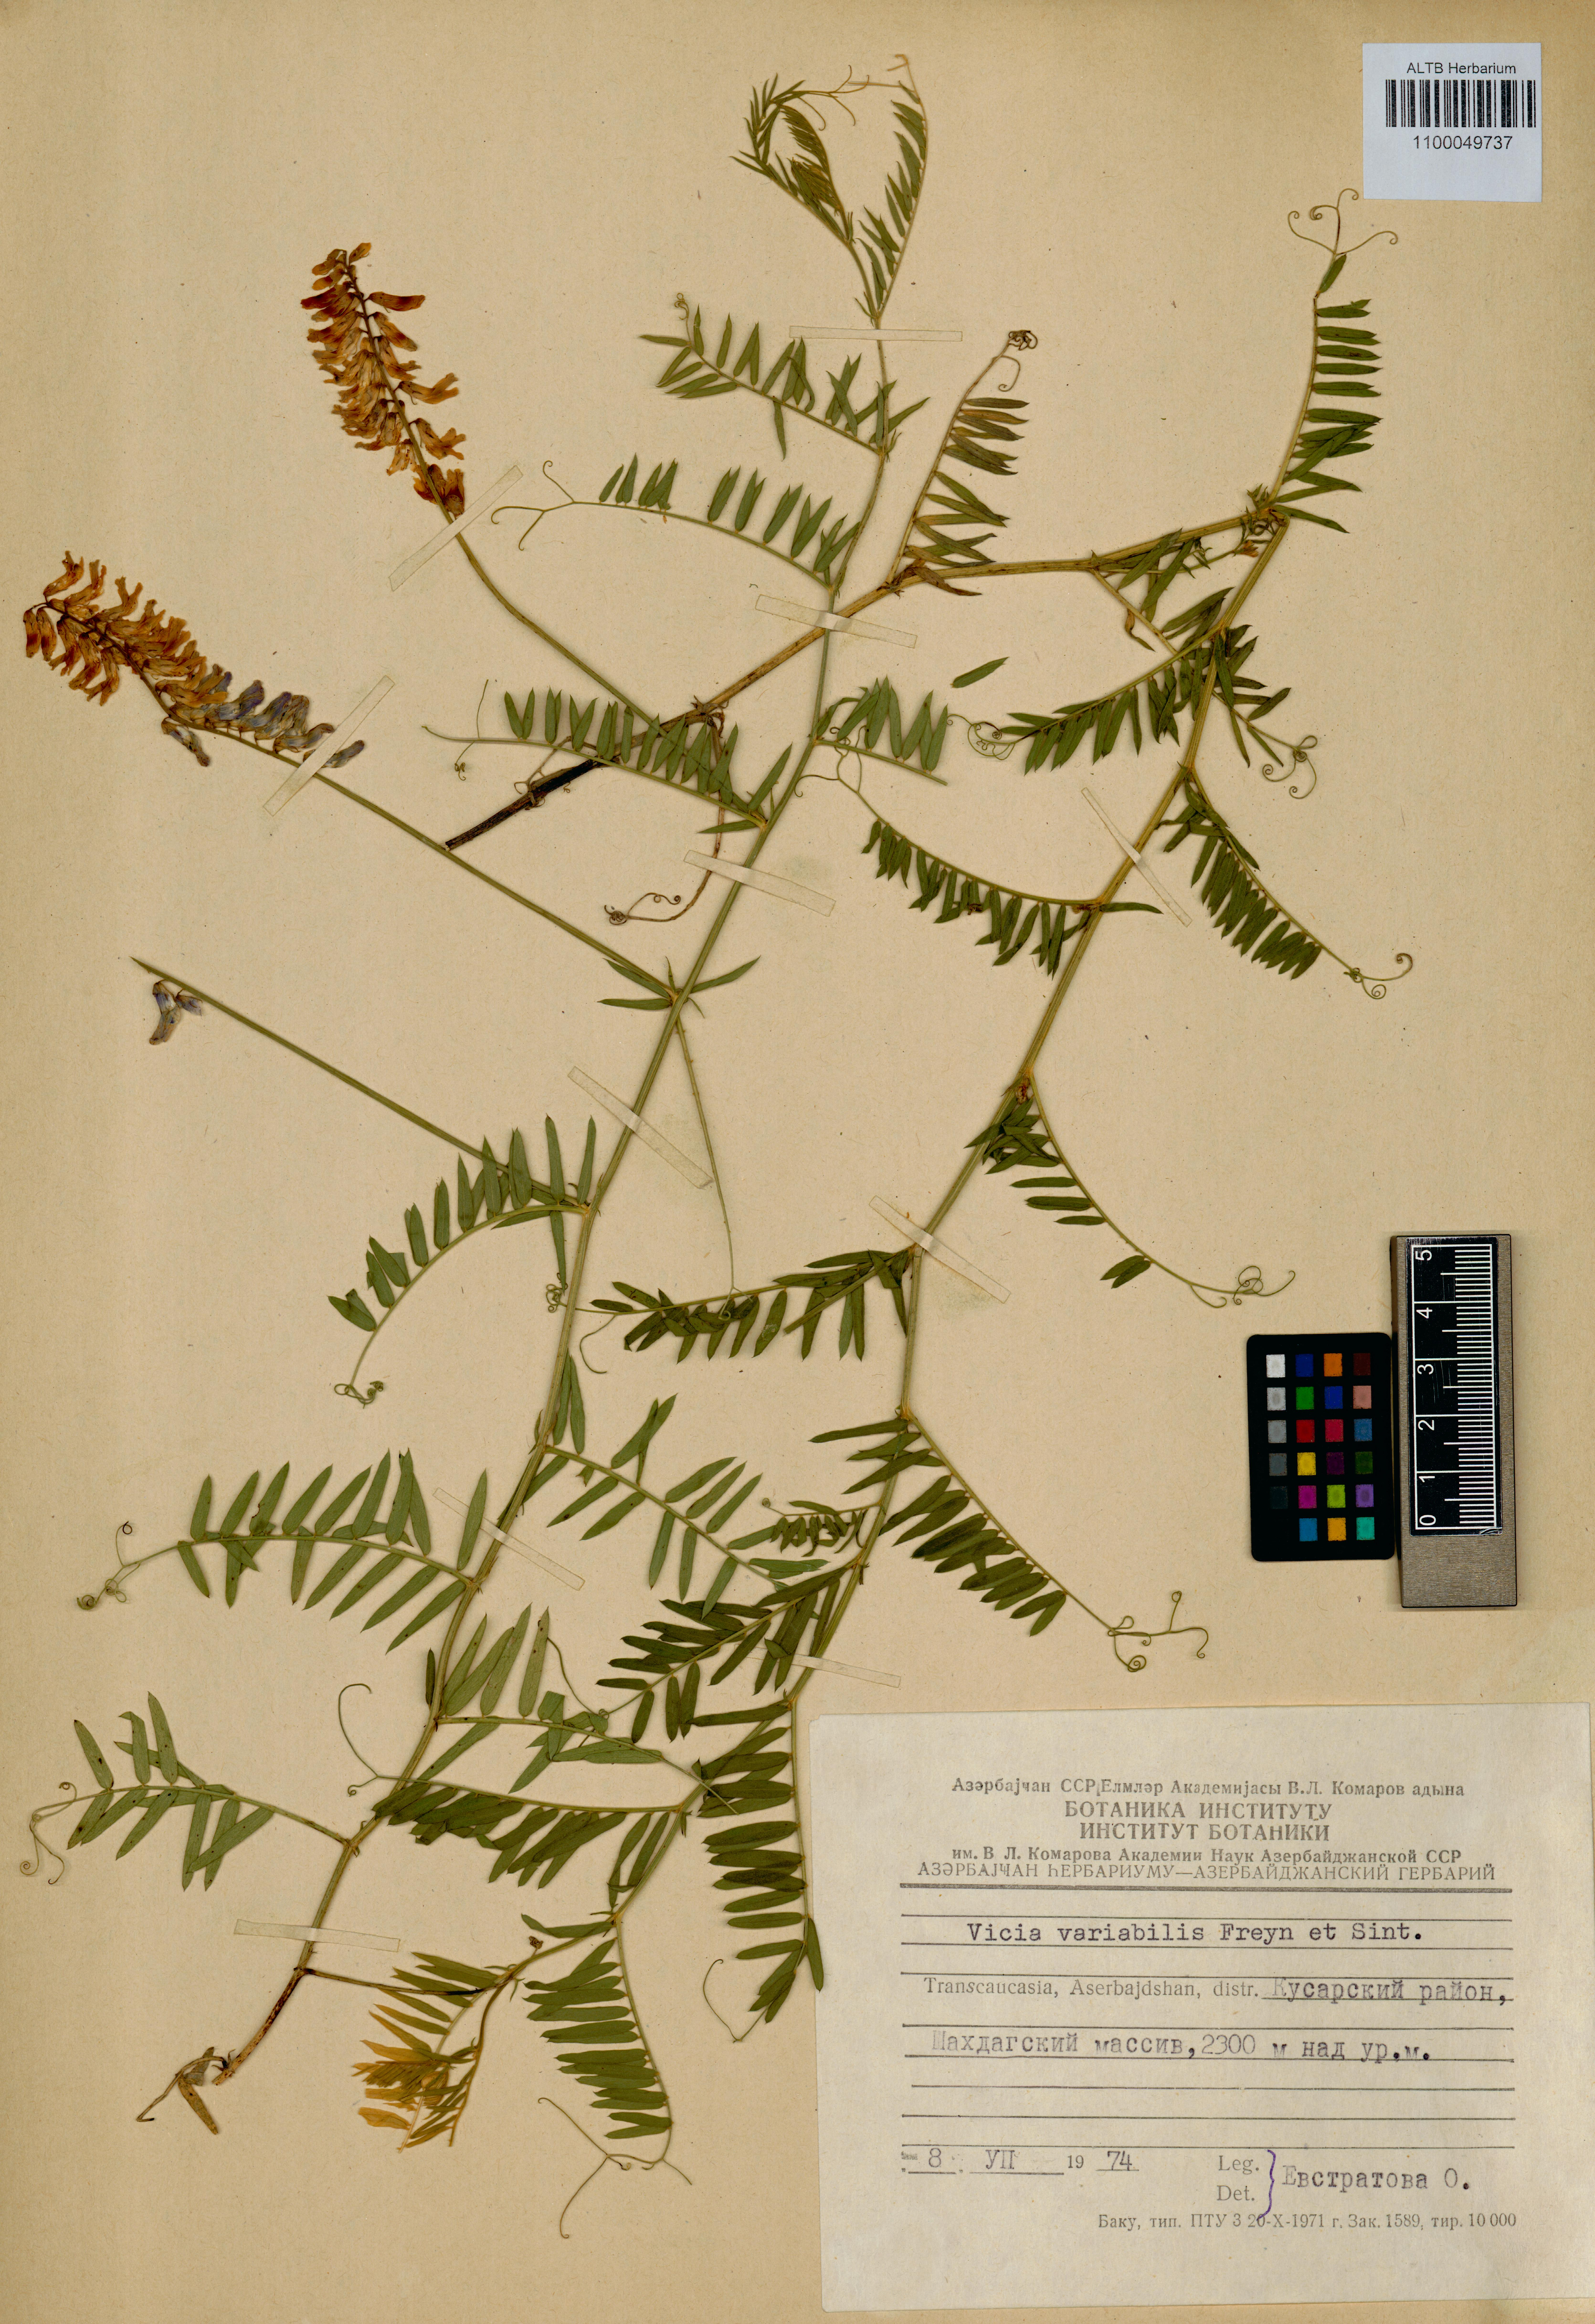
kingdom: Plantae
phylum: Tracheophyta
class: Magnoliopsida
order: Fabales
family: Fabaceae
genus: Vicia
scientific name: Vicia tenuifolia
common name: Fine-leaved vetch
